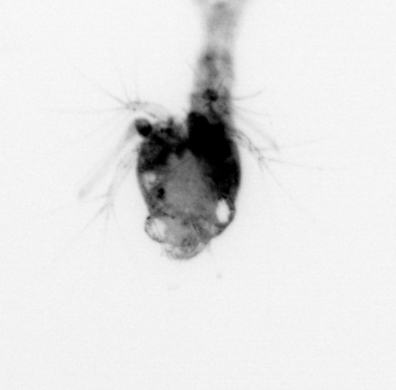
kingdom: Animalia
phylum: Arthropoda
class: Malacostraca
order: Decapoda
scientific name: Decapoda
